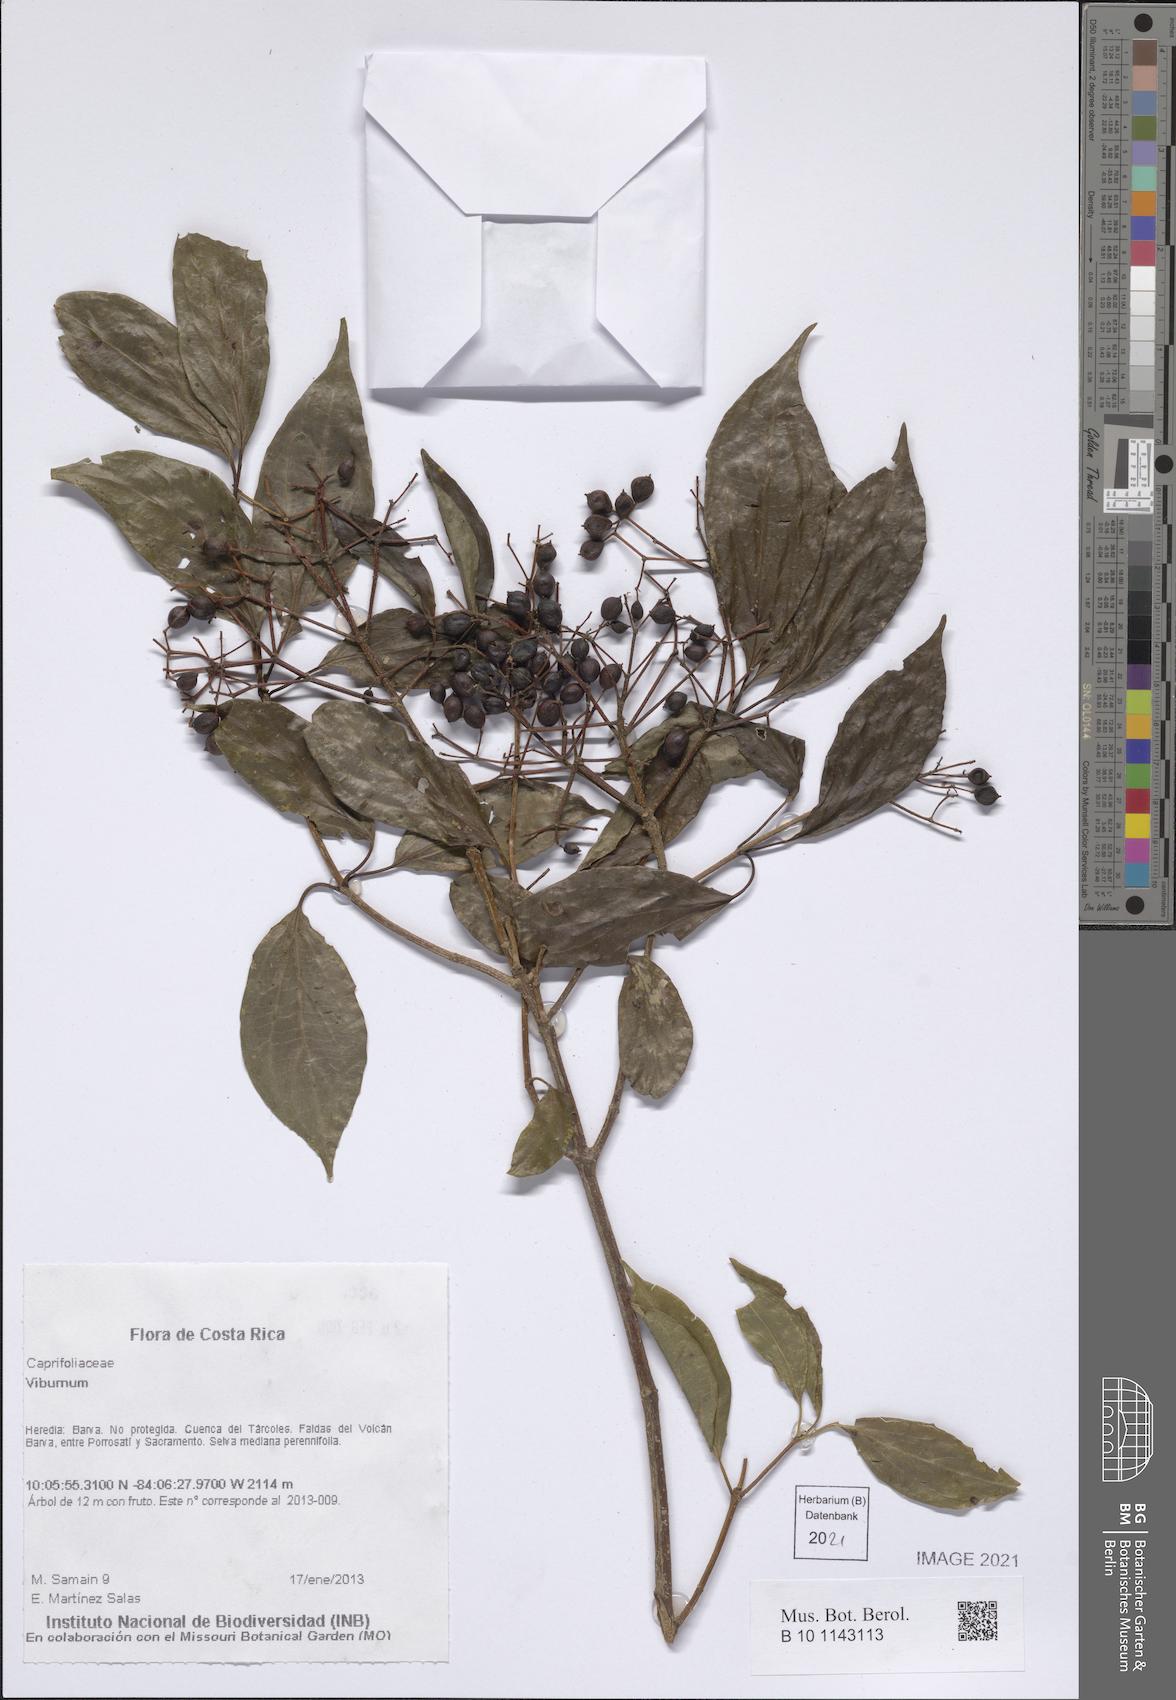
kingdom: Plantae
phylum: Tracheophyta
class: Magnoliopsida
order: Dipsacales
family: Viburnaceae
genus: Viburnum
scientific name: Viburnum
